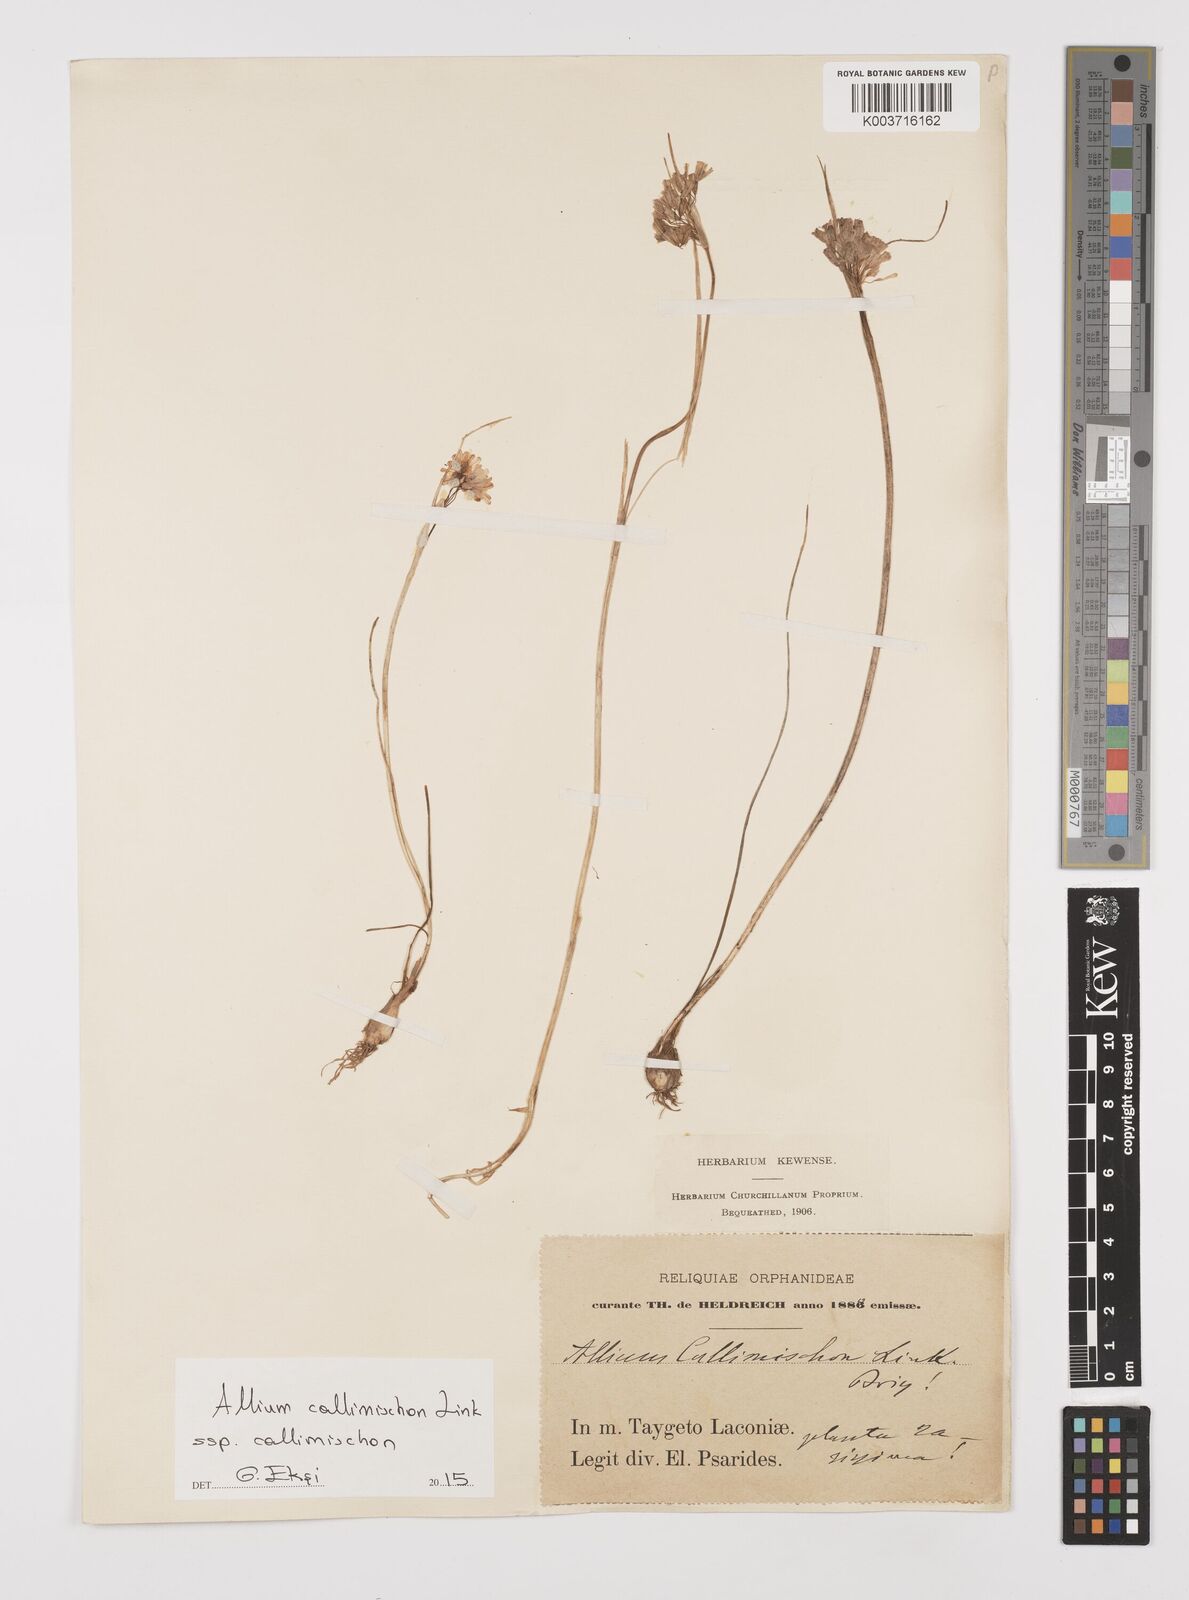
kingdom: Plantae
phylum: Tracheophyta
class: Liliopsida
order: Asparagales
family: Amaryllidaceae
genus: Allium
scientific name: Allium callimischon
